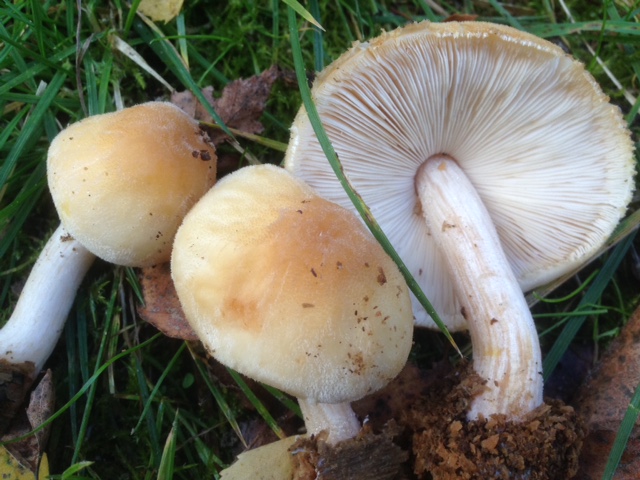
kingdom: Fungi
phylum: Basidiomycota
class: Agaricomycetes
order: Agaricales
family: Pluteaceae
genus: Pluteus
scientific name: Pluteus umbrosus
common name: Velvet shield
